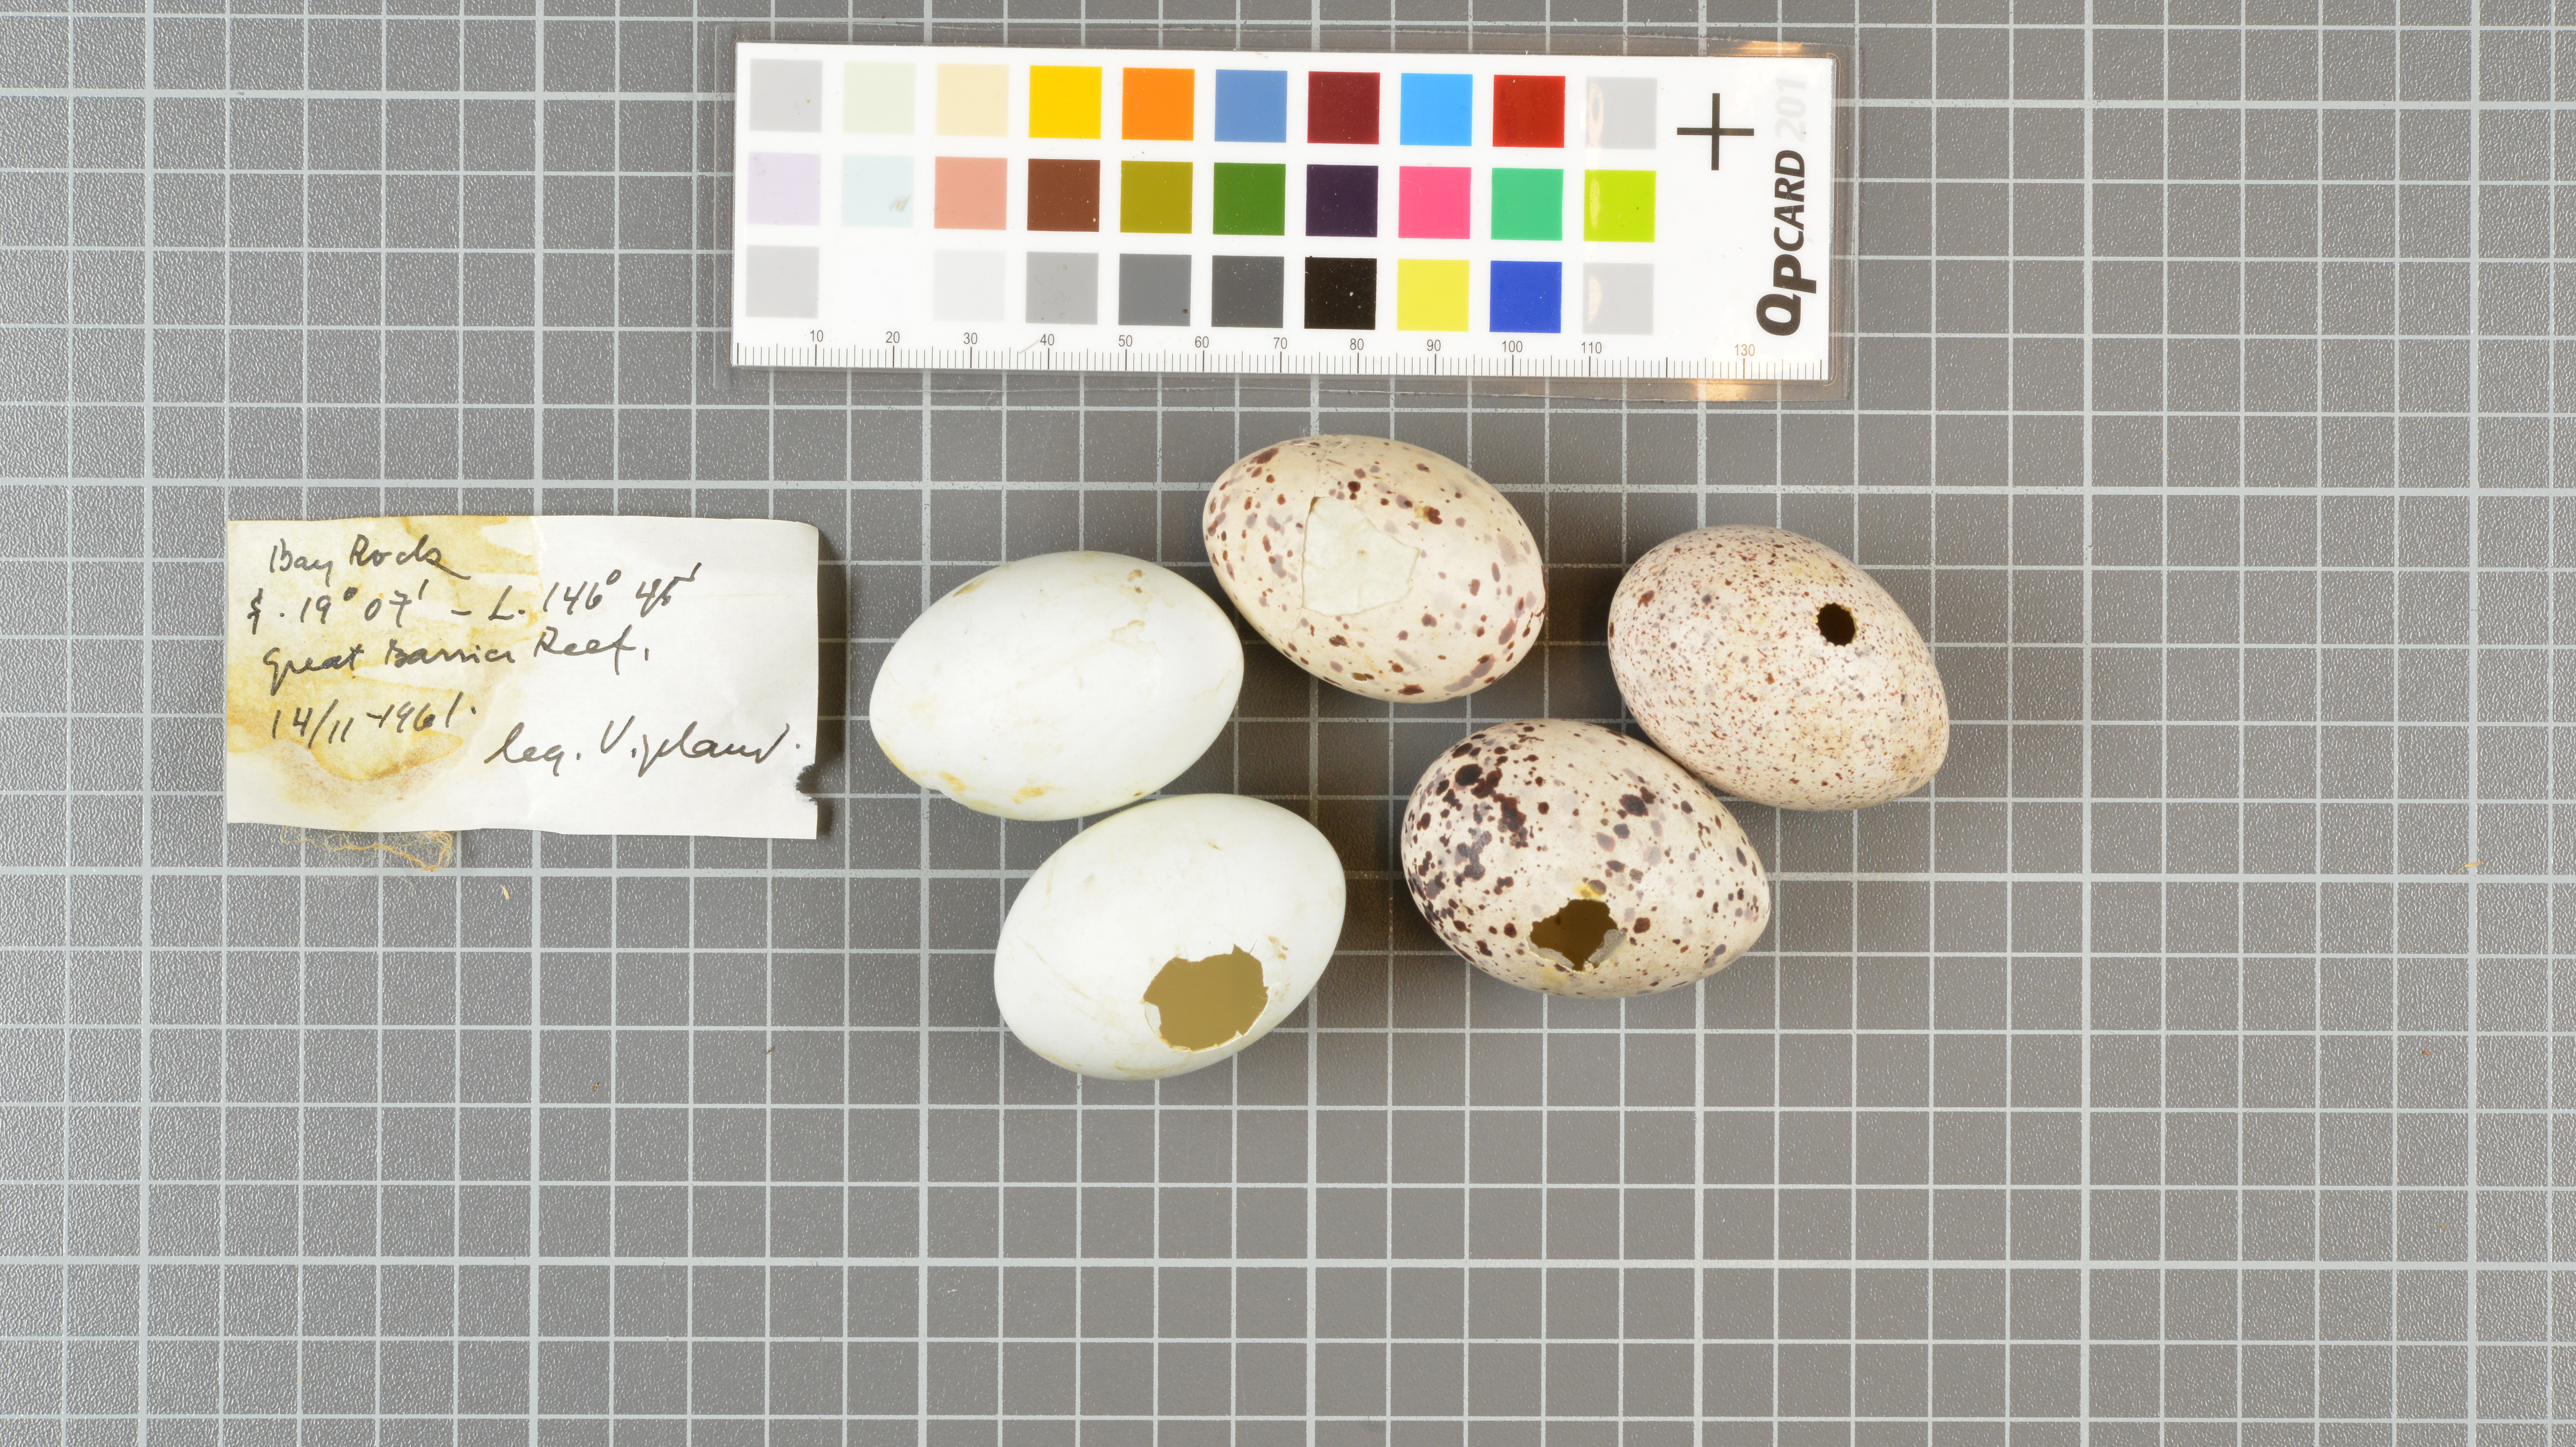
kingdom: Animalia
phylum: Chordata
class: Aves
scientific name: Aves
